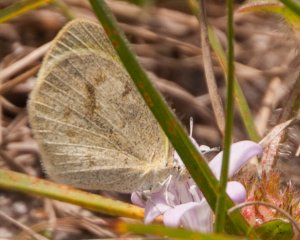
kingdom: Animalia
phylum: Arthropoda
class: Insecta
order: Lepidoptera
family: Pieridae
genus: Eurema
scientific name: Eurema daira
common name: Barred Yellow
